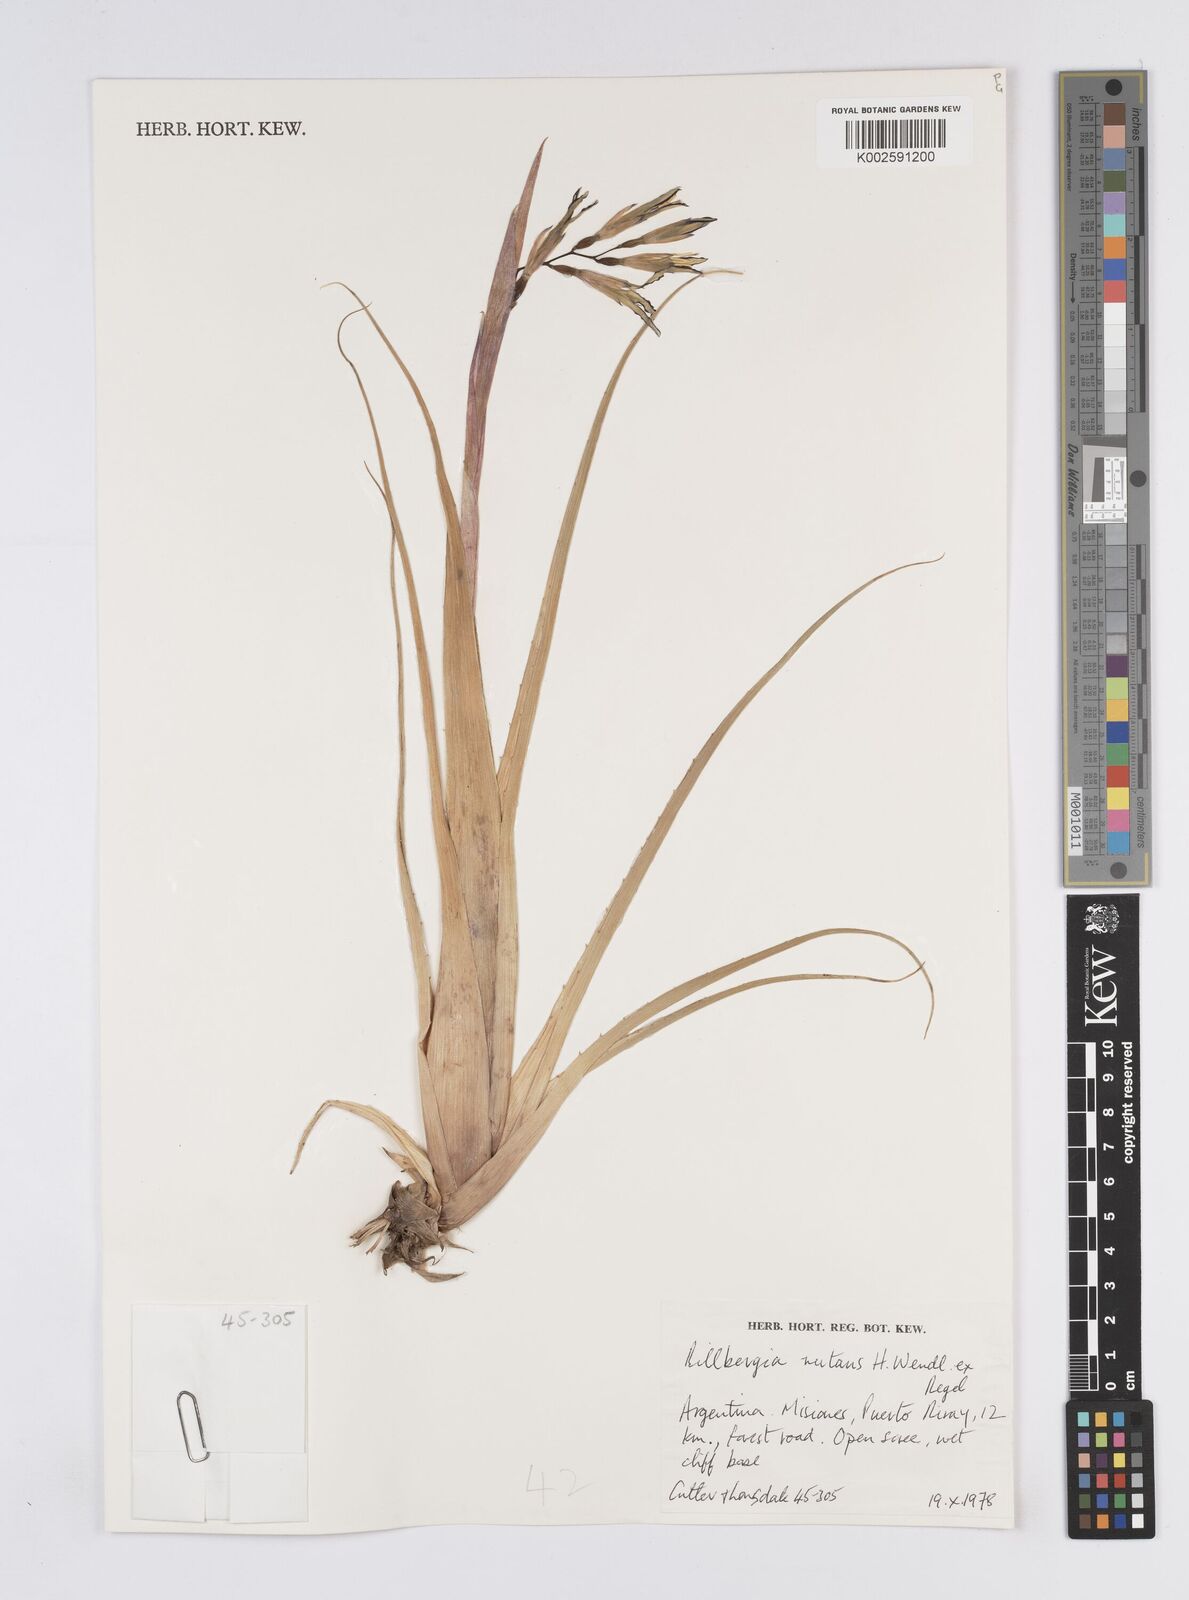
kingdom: Plantae
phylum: Tracheophyta
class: Liliopsida
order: Poales
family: Bromeliaceae
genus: Billbergia
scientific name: Billbergia nutans
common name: Friendship-plant
